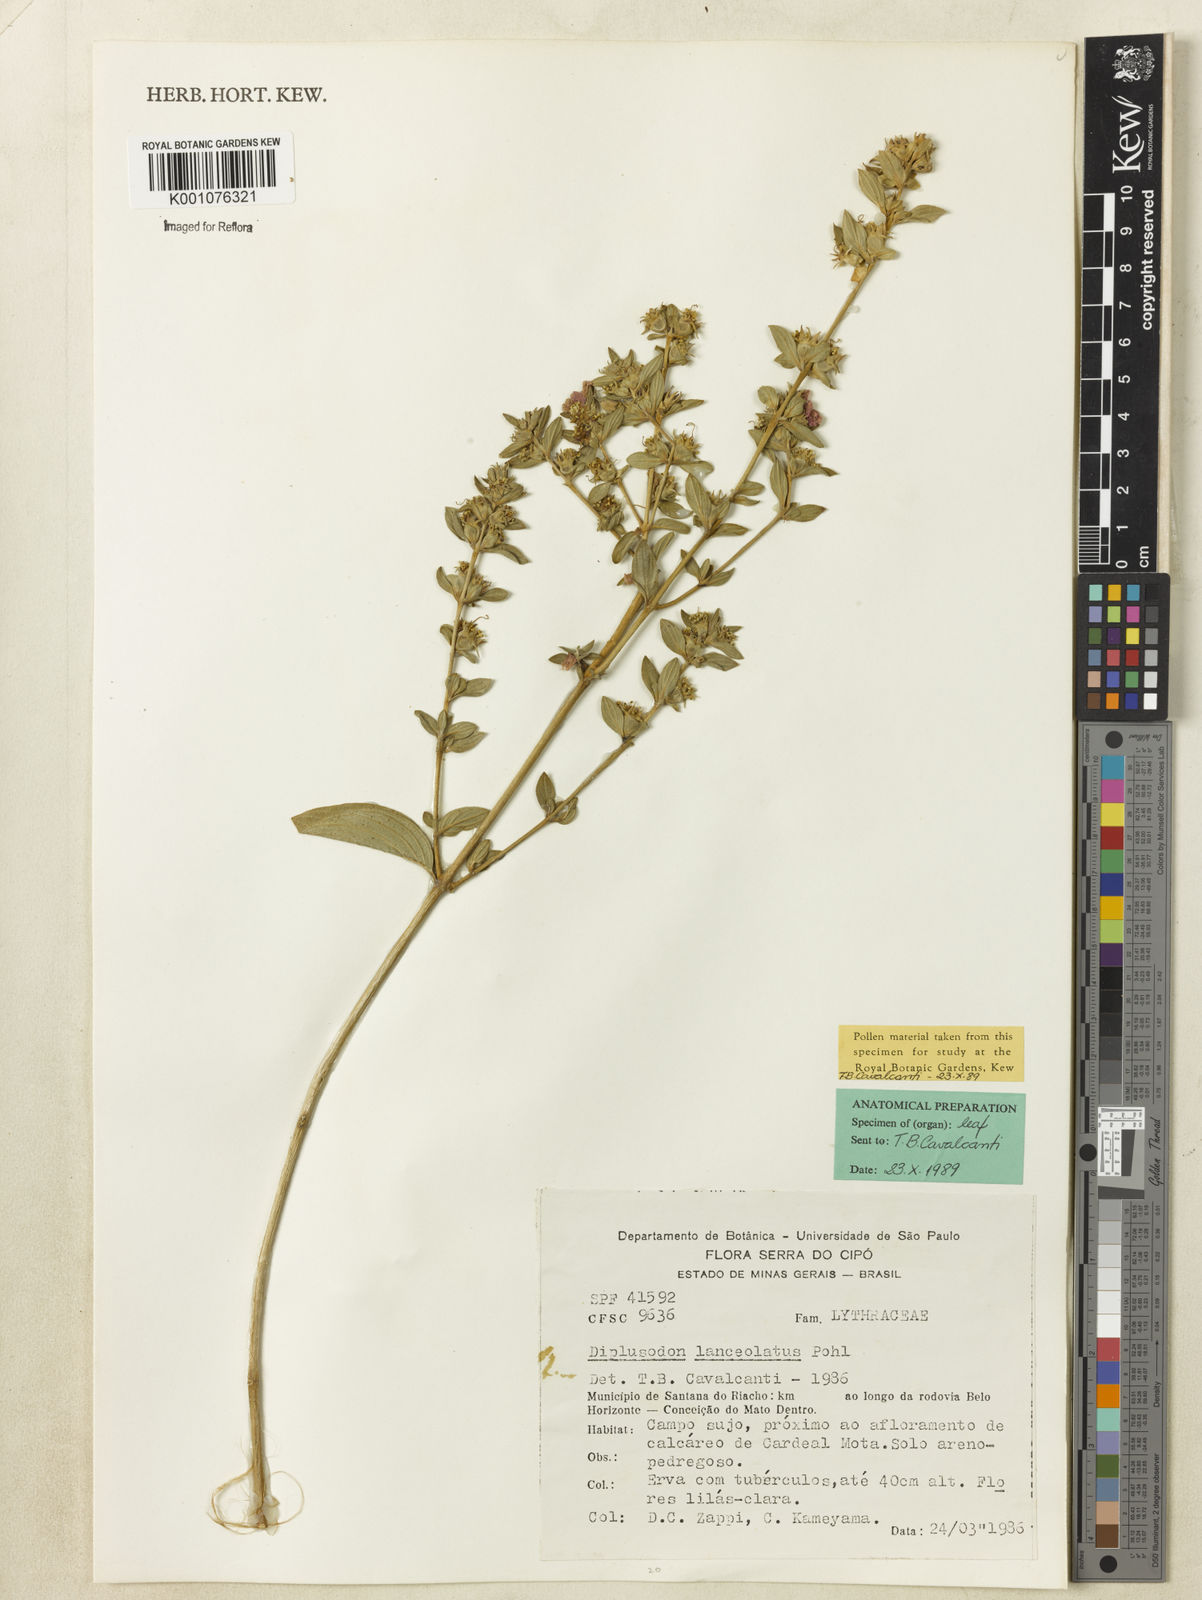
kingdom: Plantae
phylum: Tracheophyta
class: Magnoliopsida
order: Myrtales
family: Lythraceae
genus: Diplusodon
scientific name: Diplusodon lanceolatus
